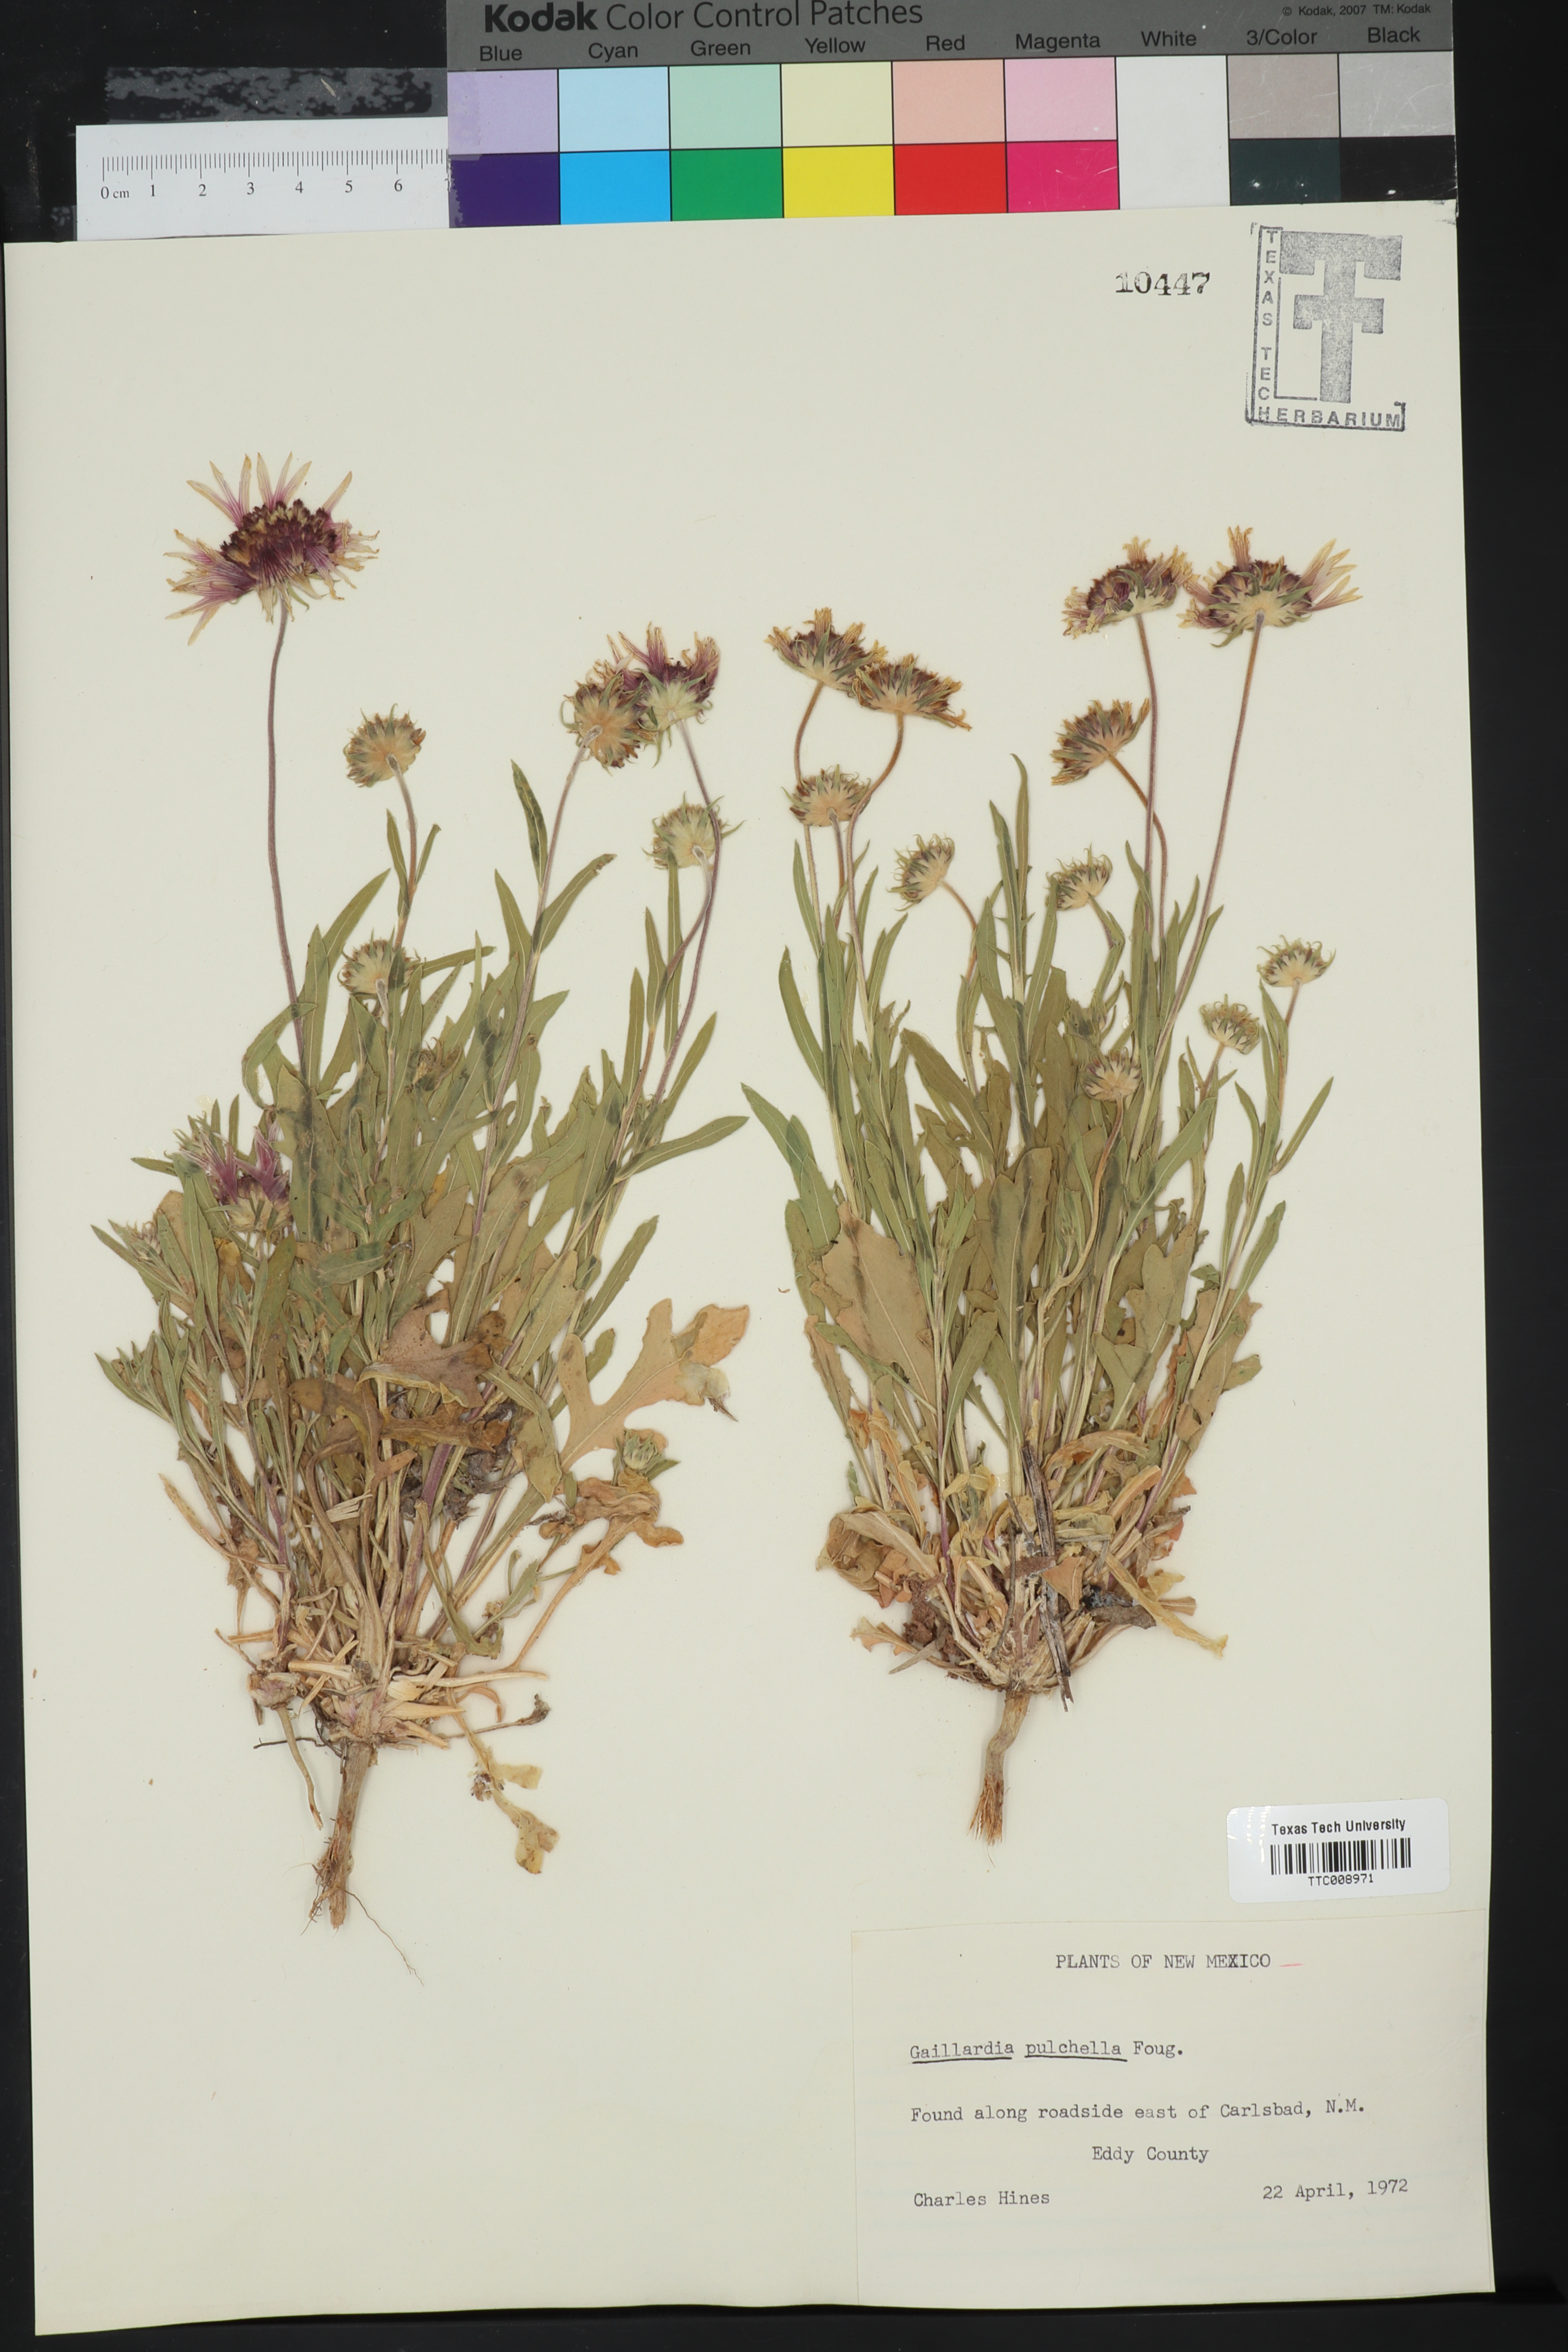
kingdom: Plantae
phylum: Tracheophyta
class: Magnoliopsida
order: Asterales
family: Asteraceae
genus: Gaillardia
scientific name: Gaillardia pulchella
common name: Firewheel
